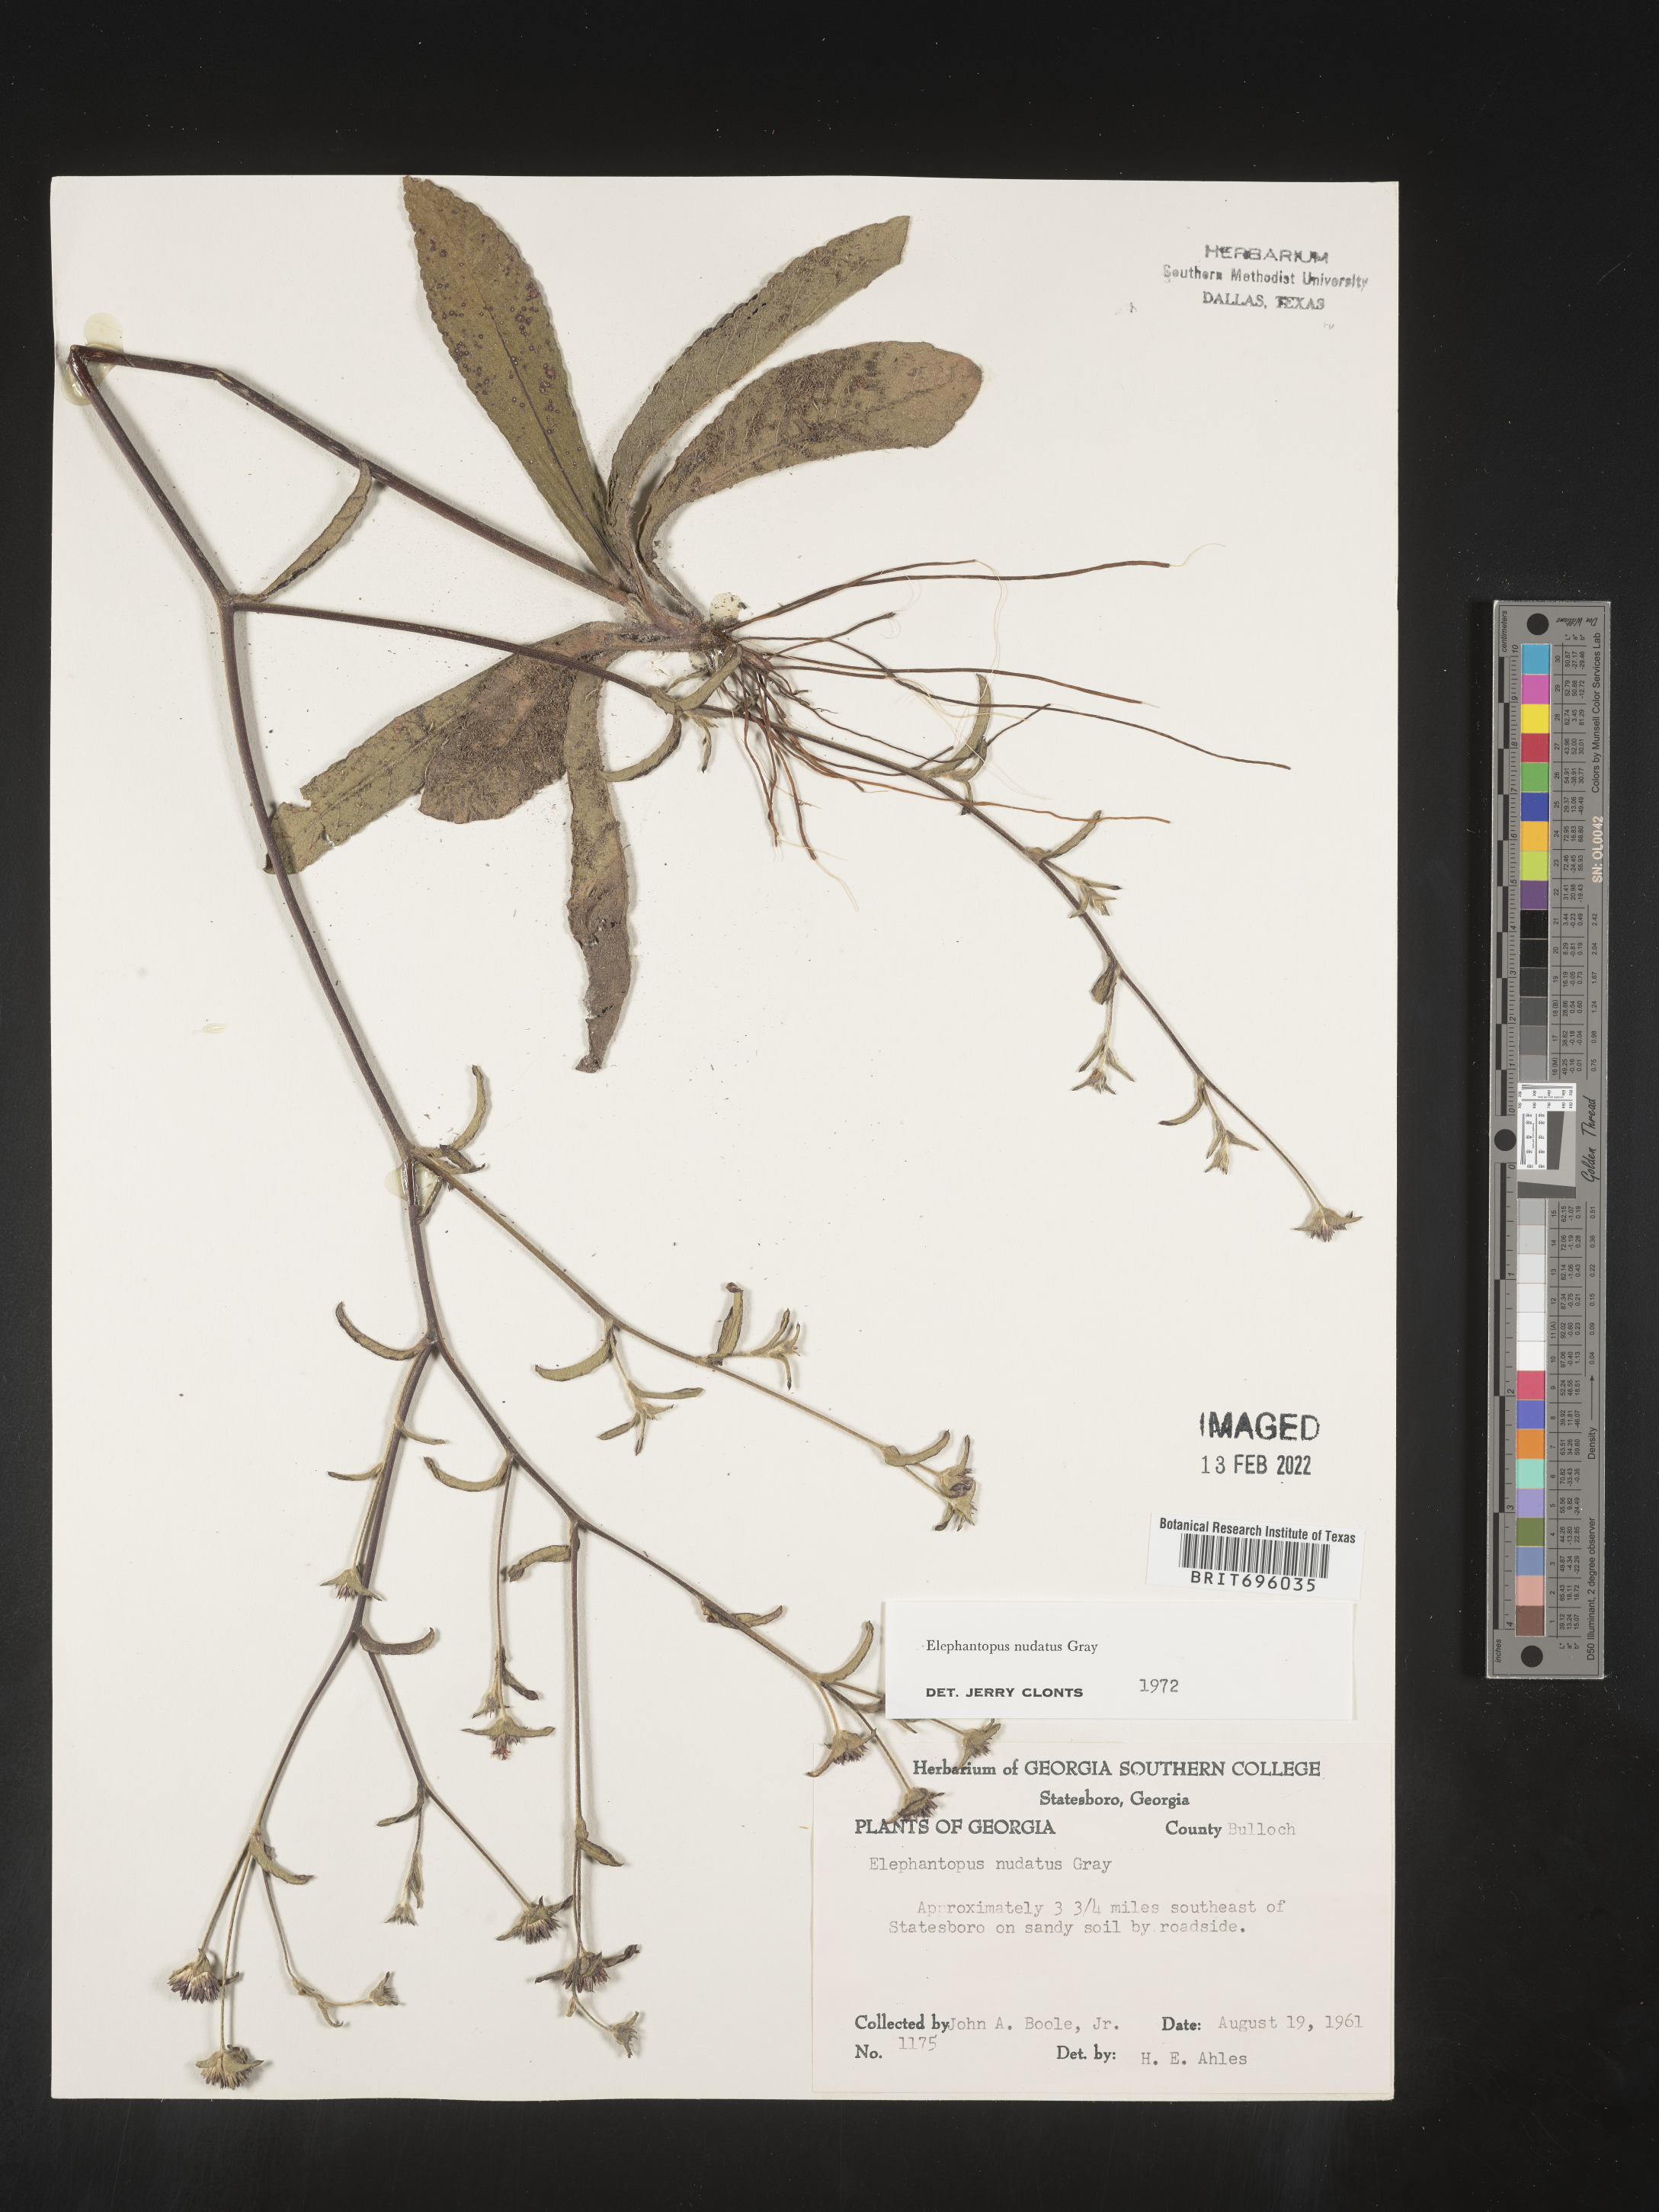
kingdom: Plantae
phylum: Tracheophyta
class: Magnoliopsida
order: Asterales
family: Asteraceae
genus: Elephantopus
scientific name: Elephantopus nudatus
